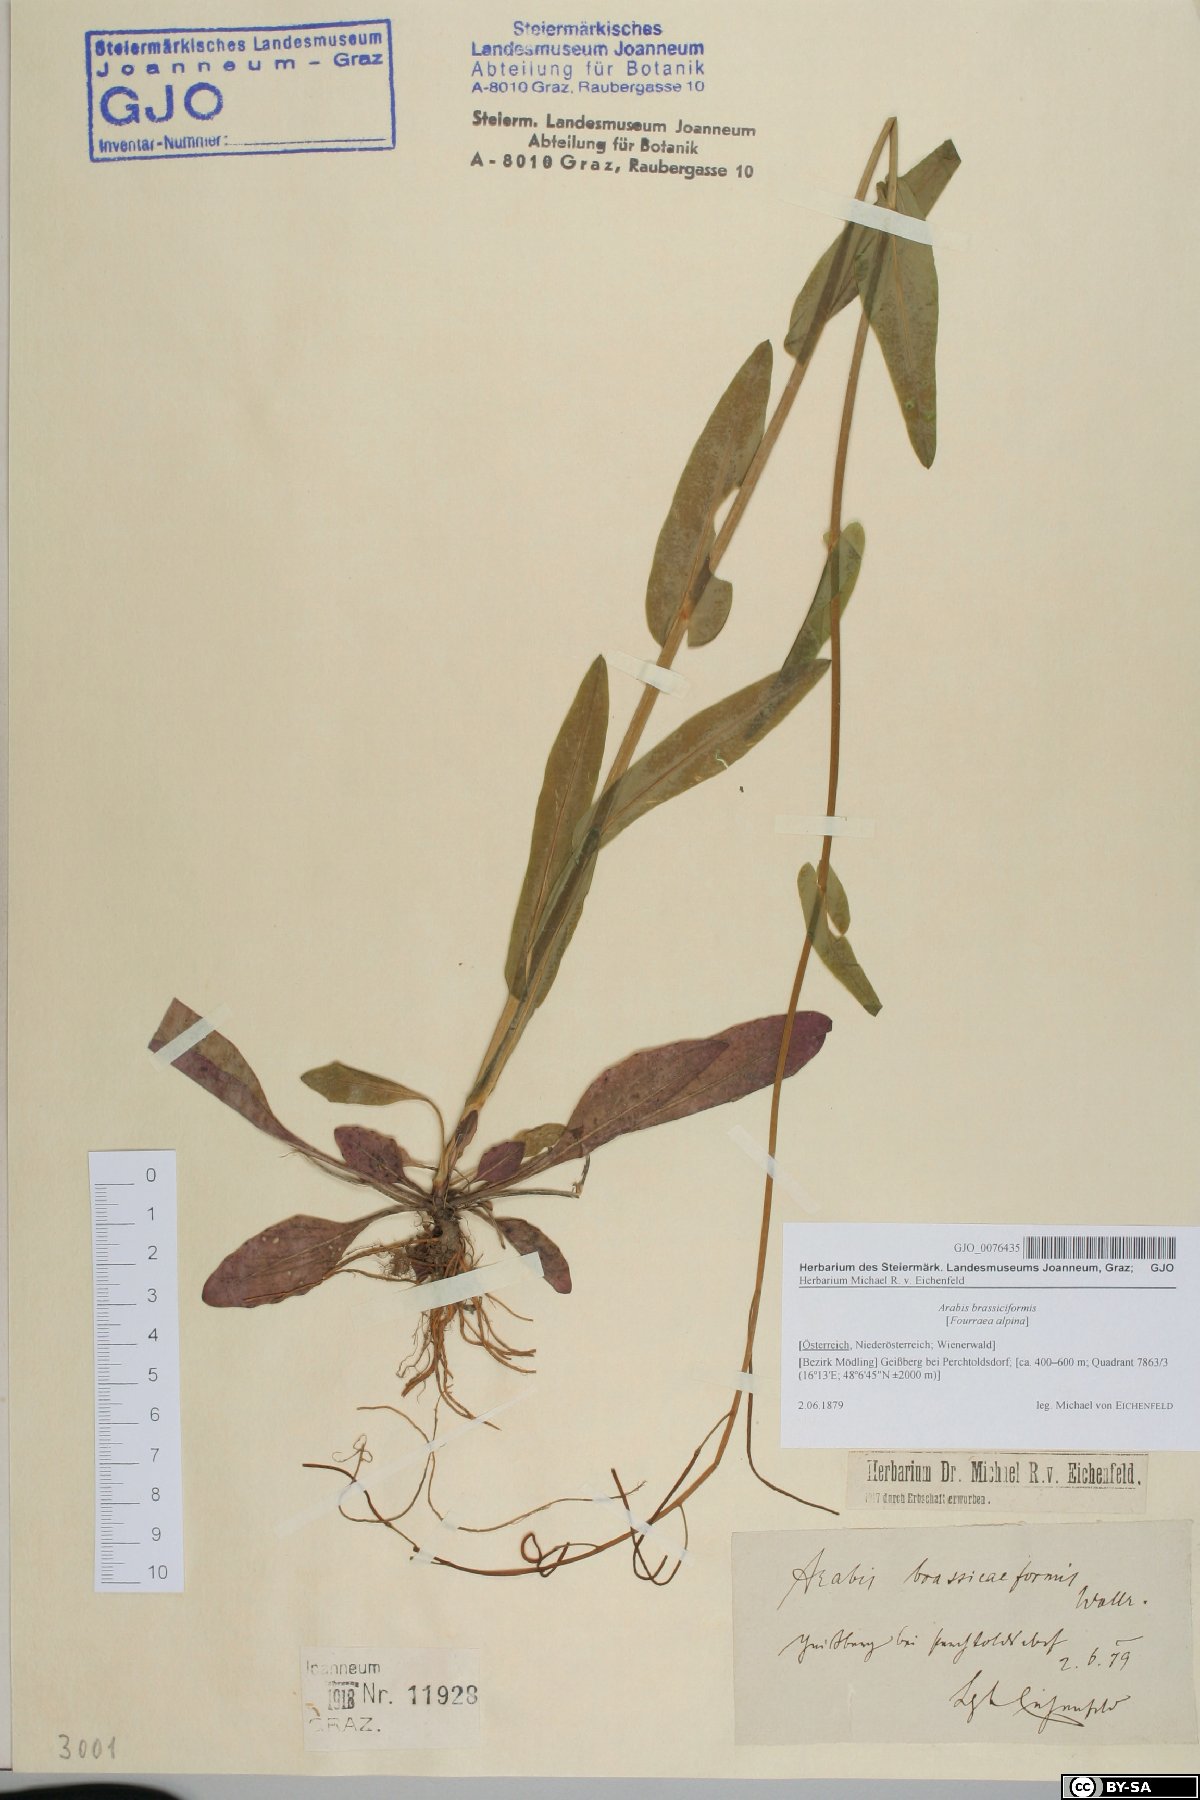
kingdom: Plantae
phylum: Tracheophyta
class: Magnoliopsida
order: Brassicales
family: Brassicaceae
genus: Fourraea
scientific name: Fourraea alpina
